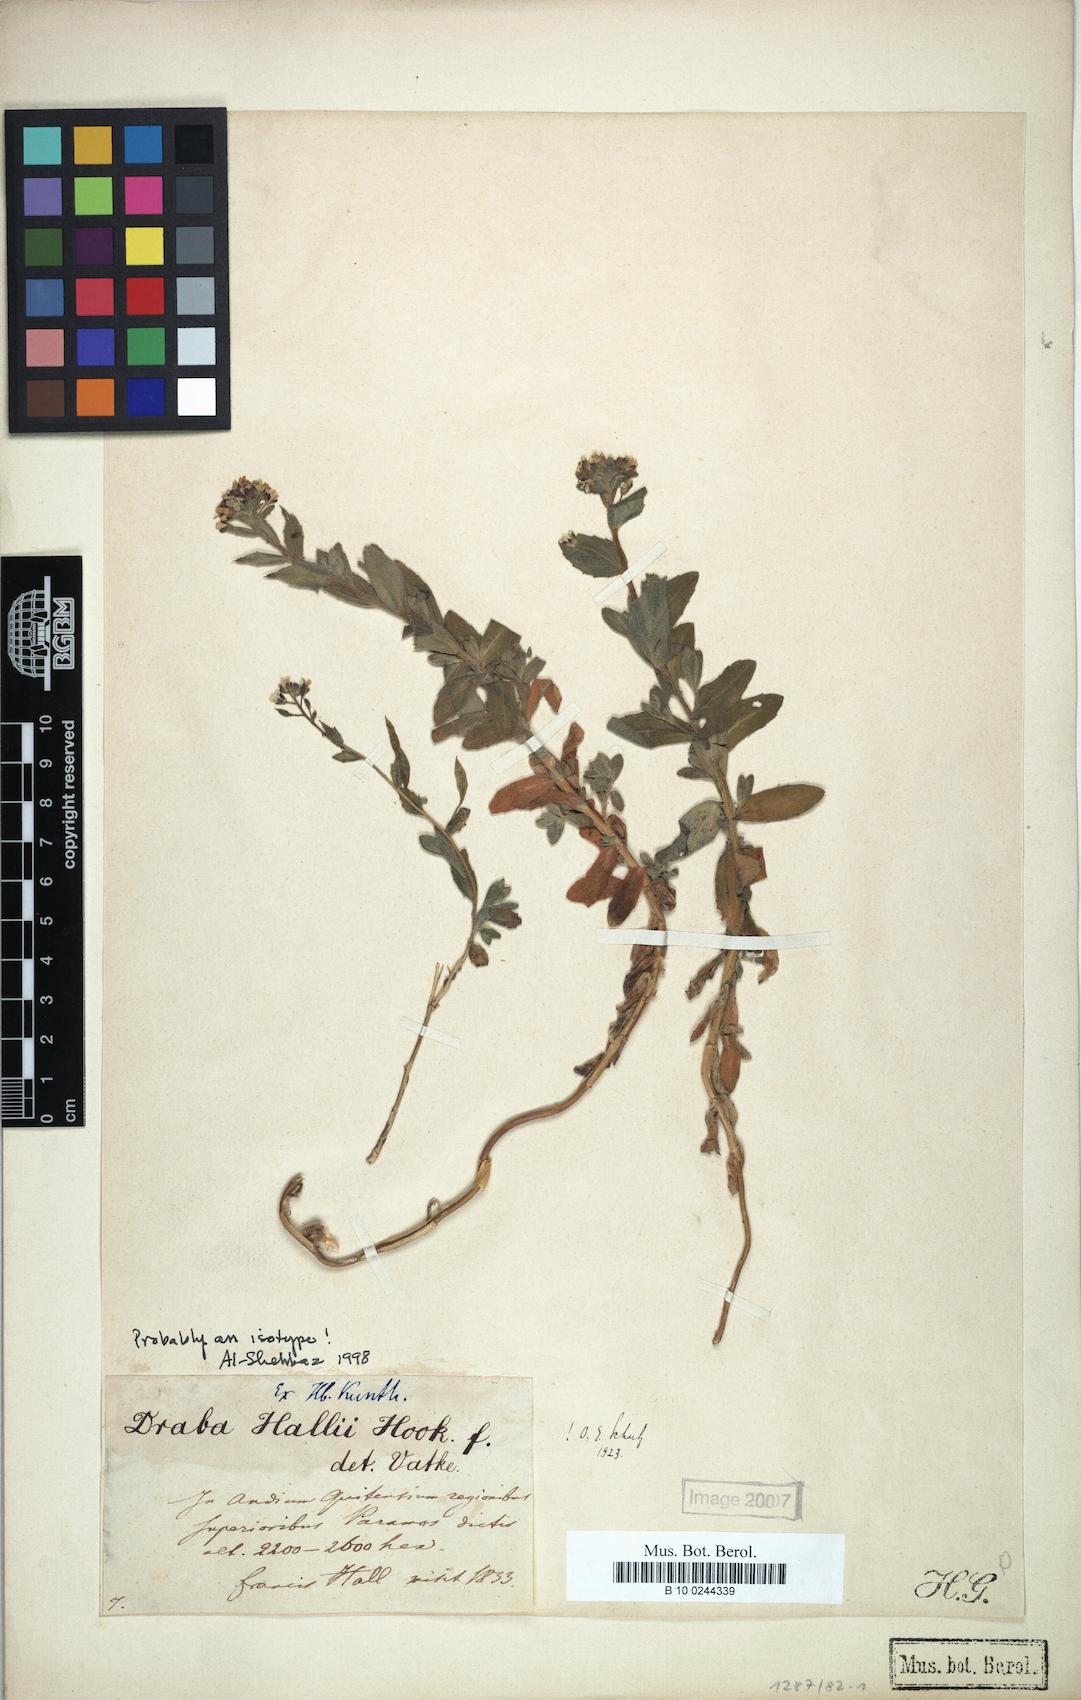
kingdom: Plantae
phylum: Tracheophyta
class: Magnoliopsida
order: Brassicales
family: Brassicaceae
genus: Draba
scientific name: Draba hallii
